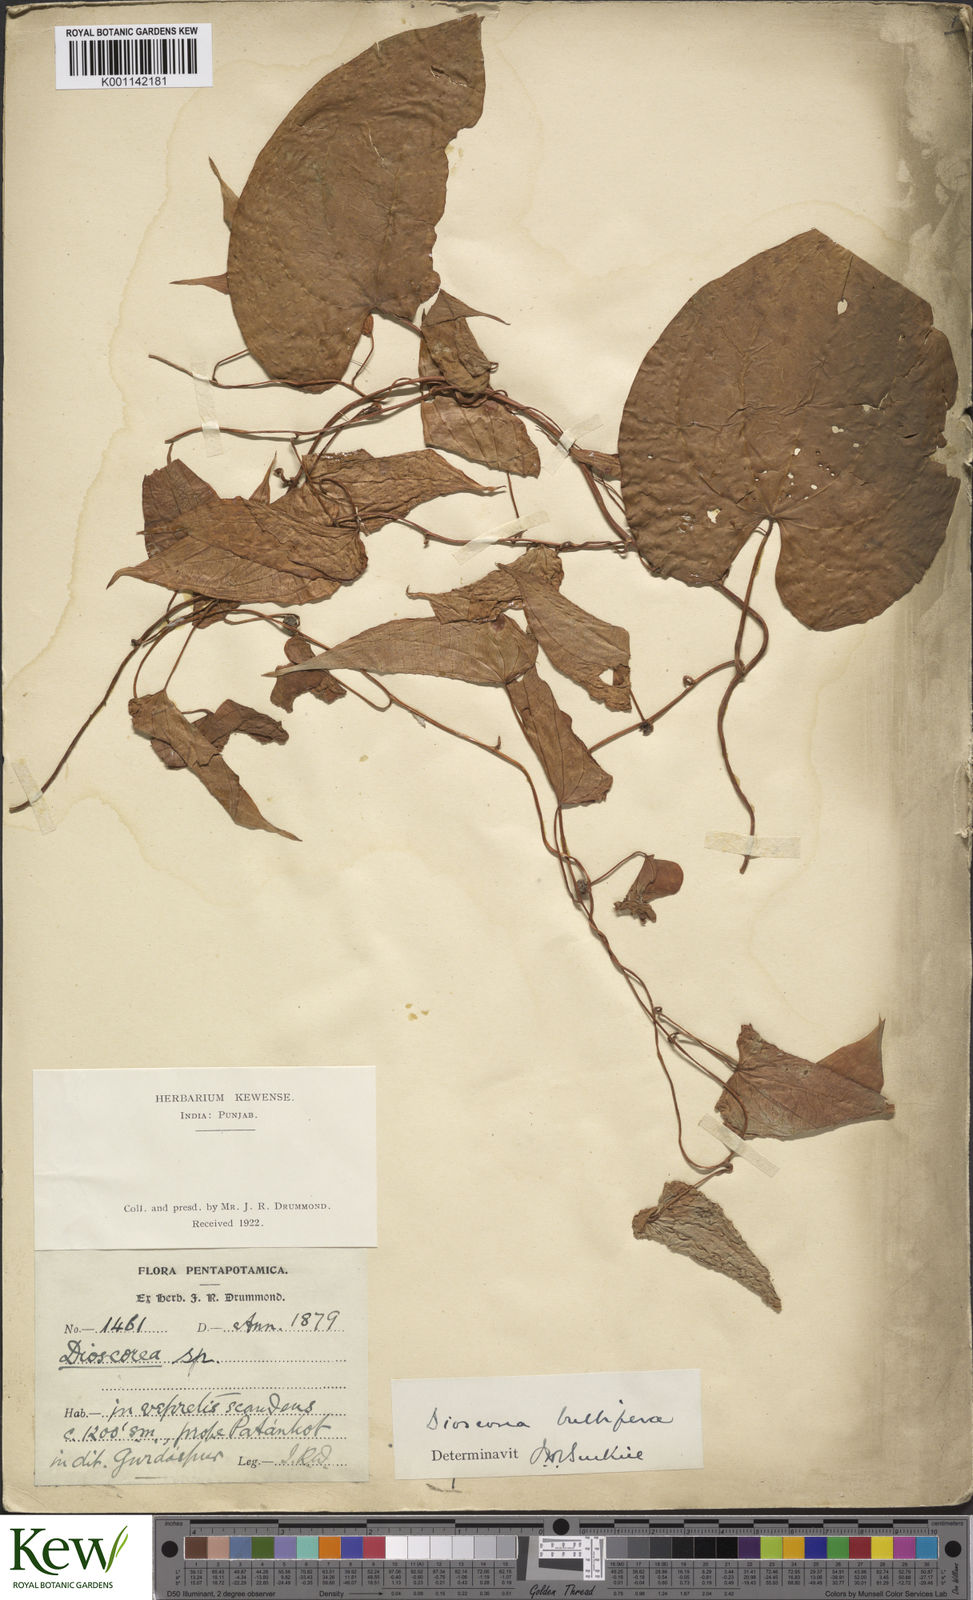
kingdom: Plantae
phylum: Tracheophyta
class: Liliopsida
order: Dioscoreales
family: Dioscoreaceae
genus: Dioscorea
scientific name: Dioscorea bulbifera
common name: Air yam
